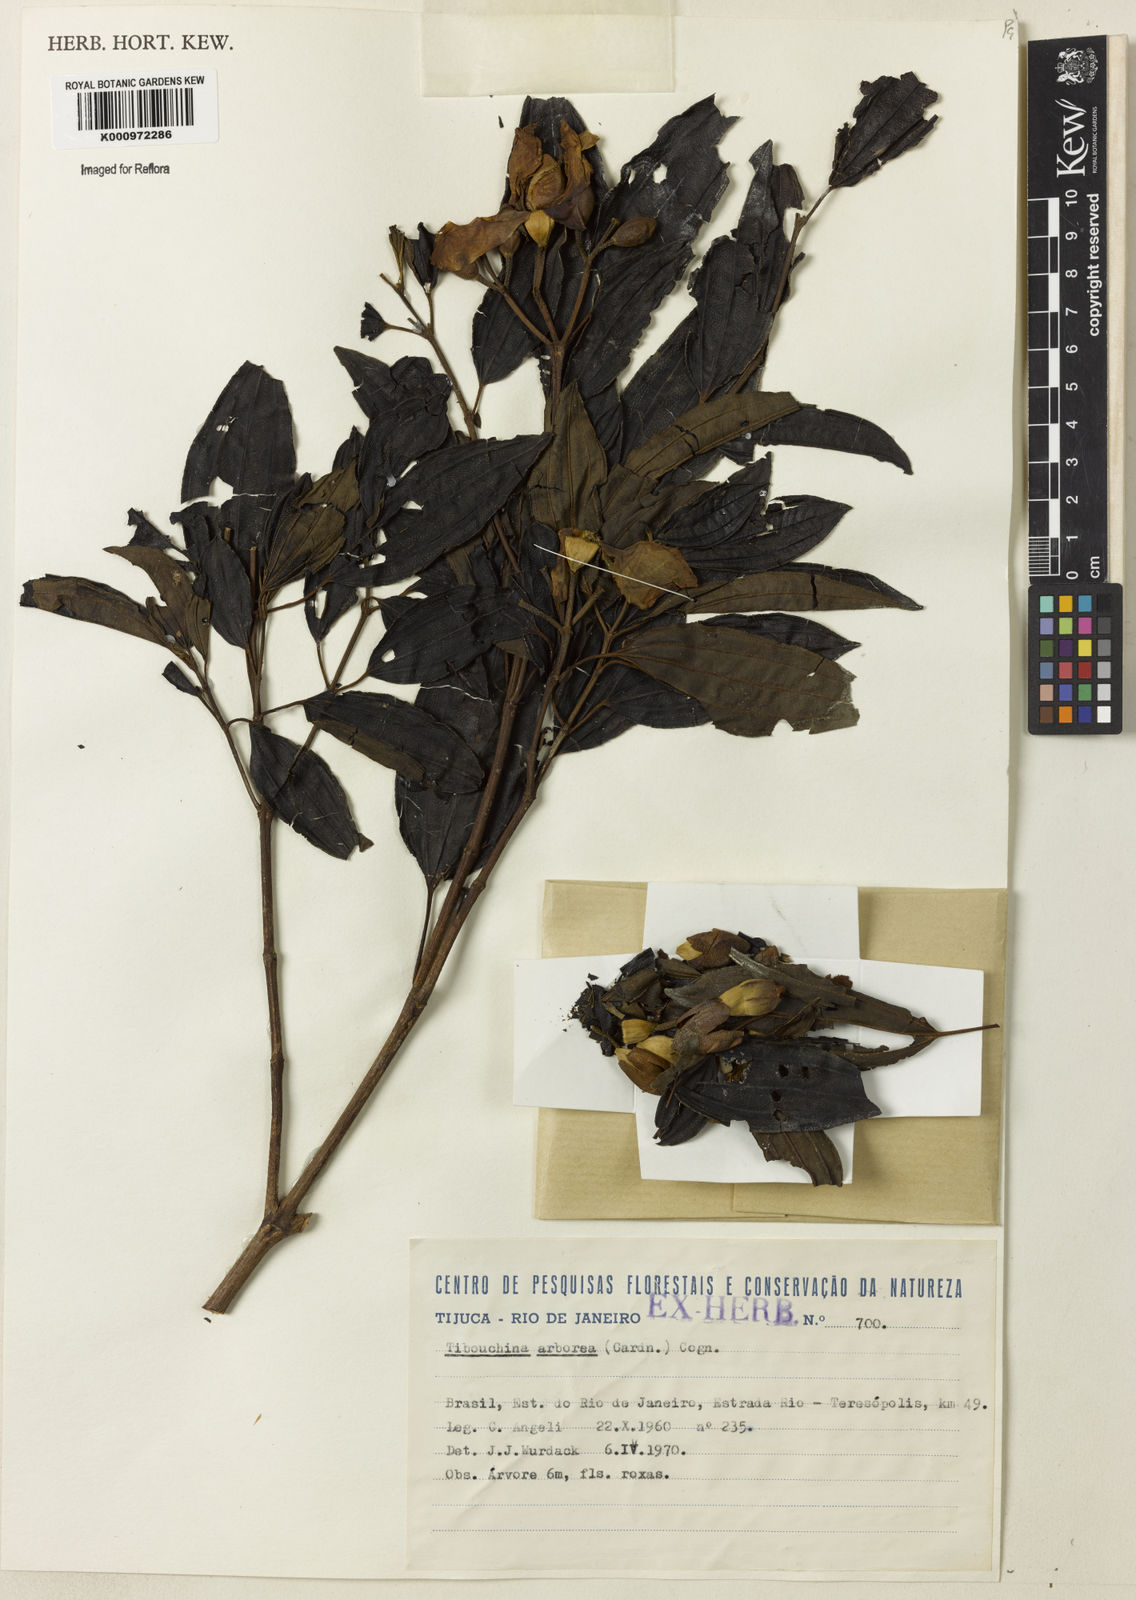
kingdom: Plantae
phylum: Tracheophyta
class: Magnoliopsida
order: Myrtales
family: Melastomataceae
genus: Pleroma
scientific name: Pleroma arboreum
